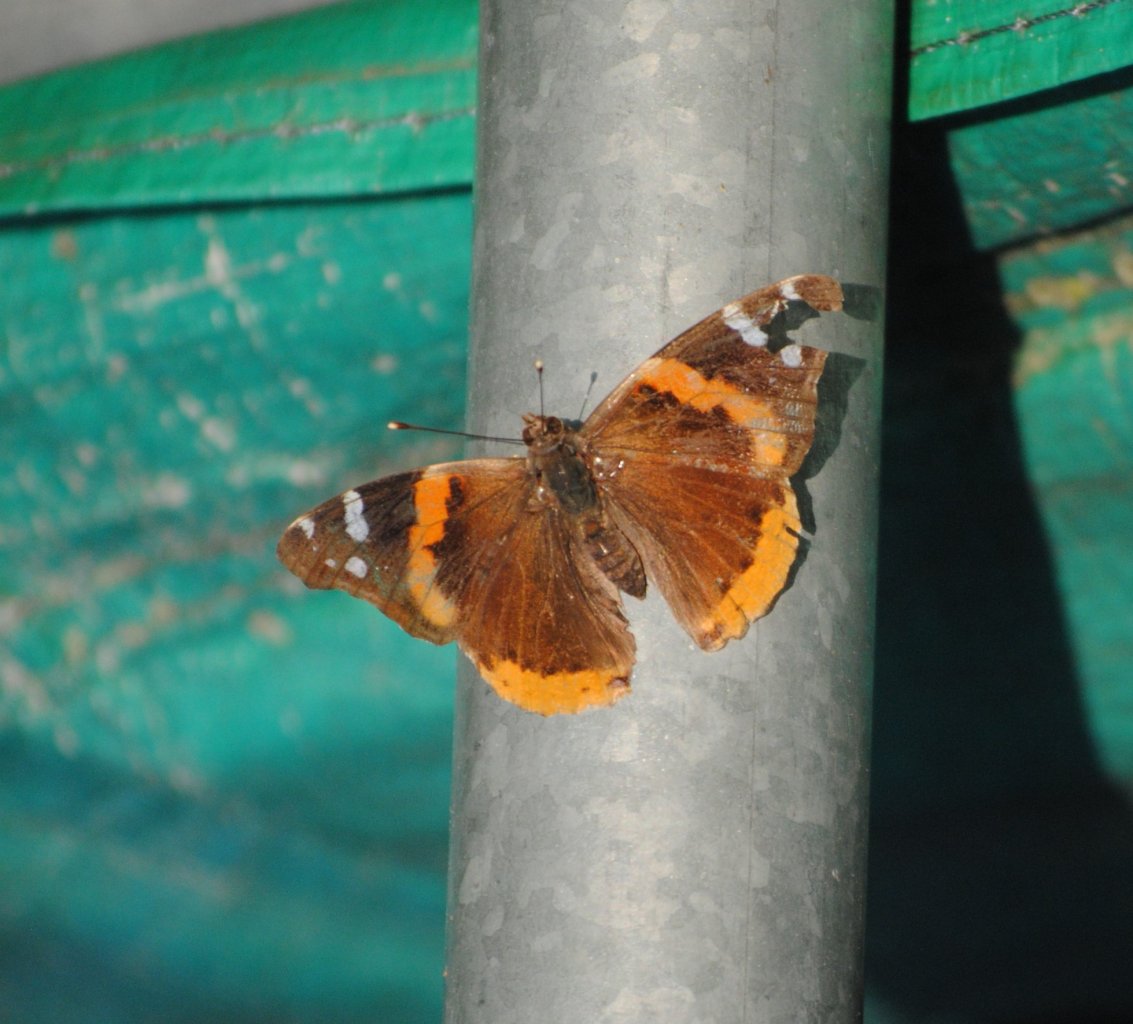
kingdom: Animalia
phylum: Arthropoda
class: Insecta
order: Lepidoptera
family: Nymphalidae
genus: Vanessa
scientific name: Vanessa atalanta
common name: Red Admiral
